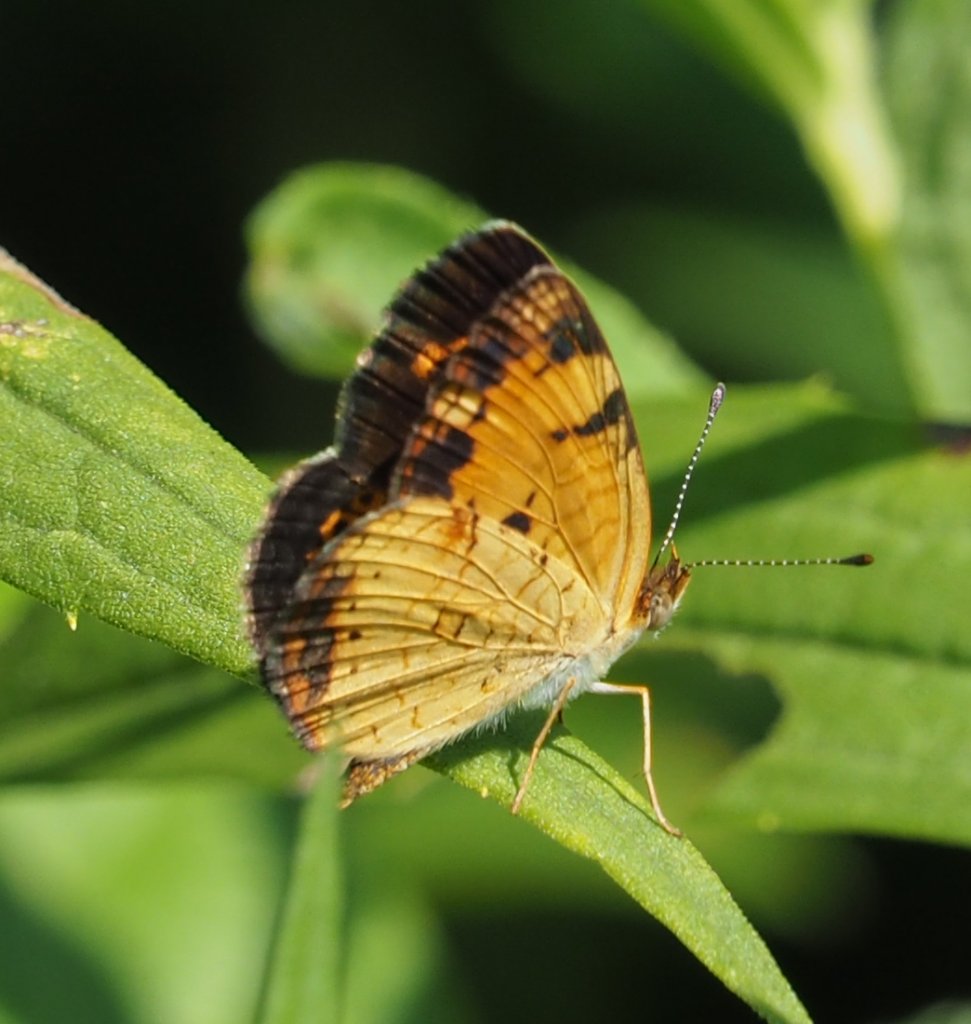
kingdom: Animalia
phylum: Arthropoda
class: Insecta
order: Lepidoptera
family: Nymphalidae
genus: Phyciodes
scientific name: Phyciodes tharos
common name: Pearl Crescent
